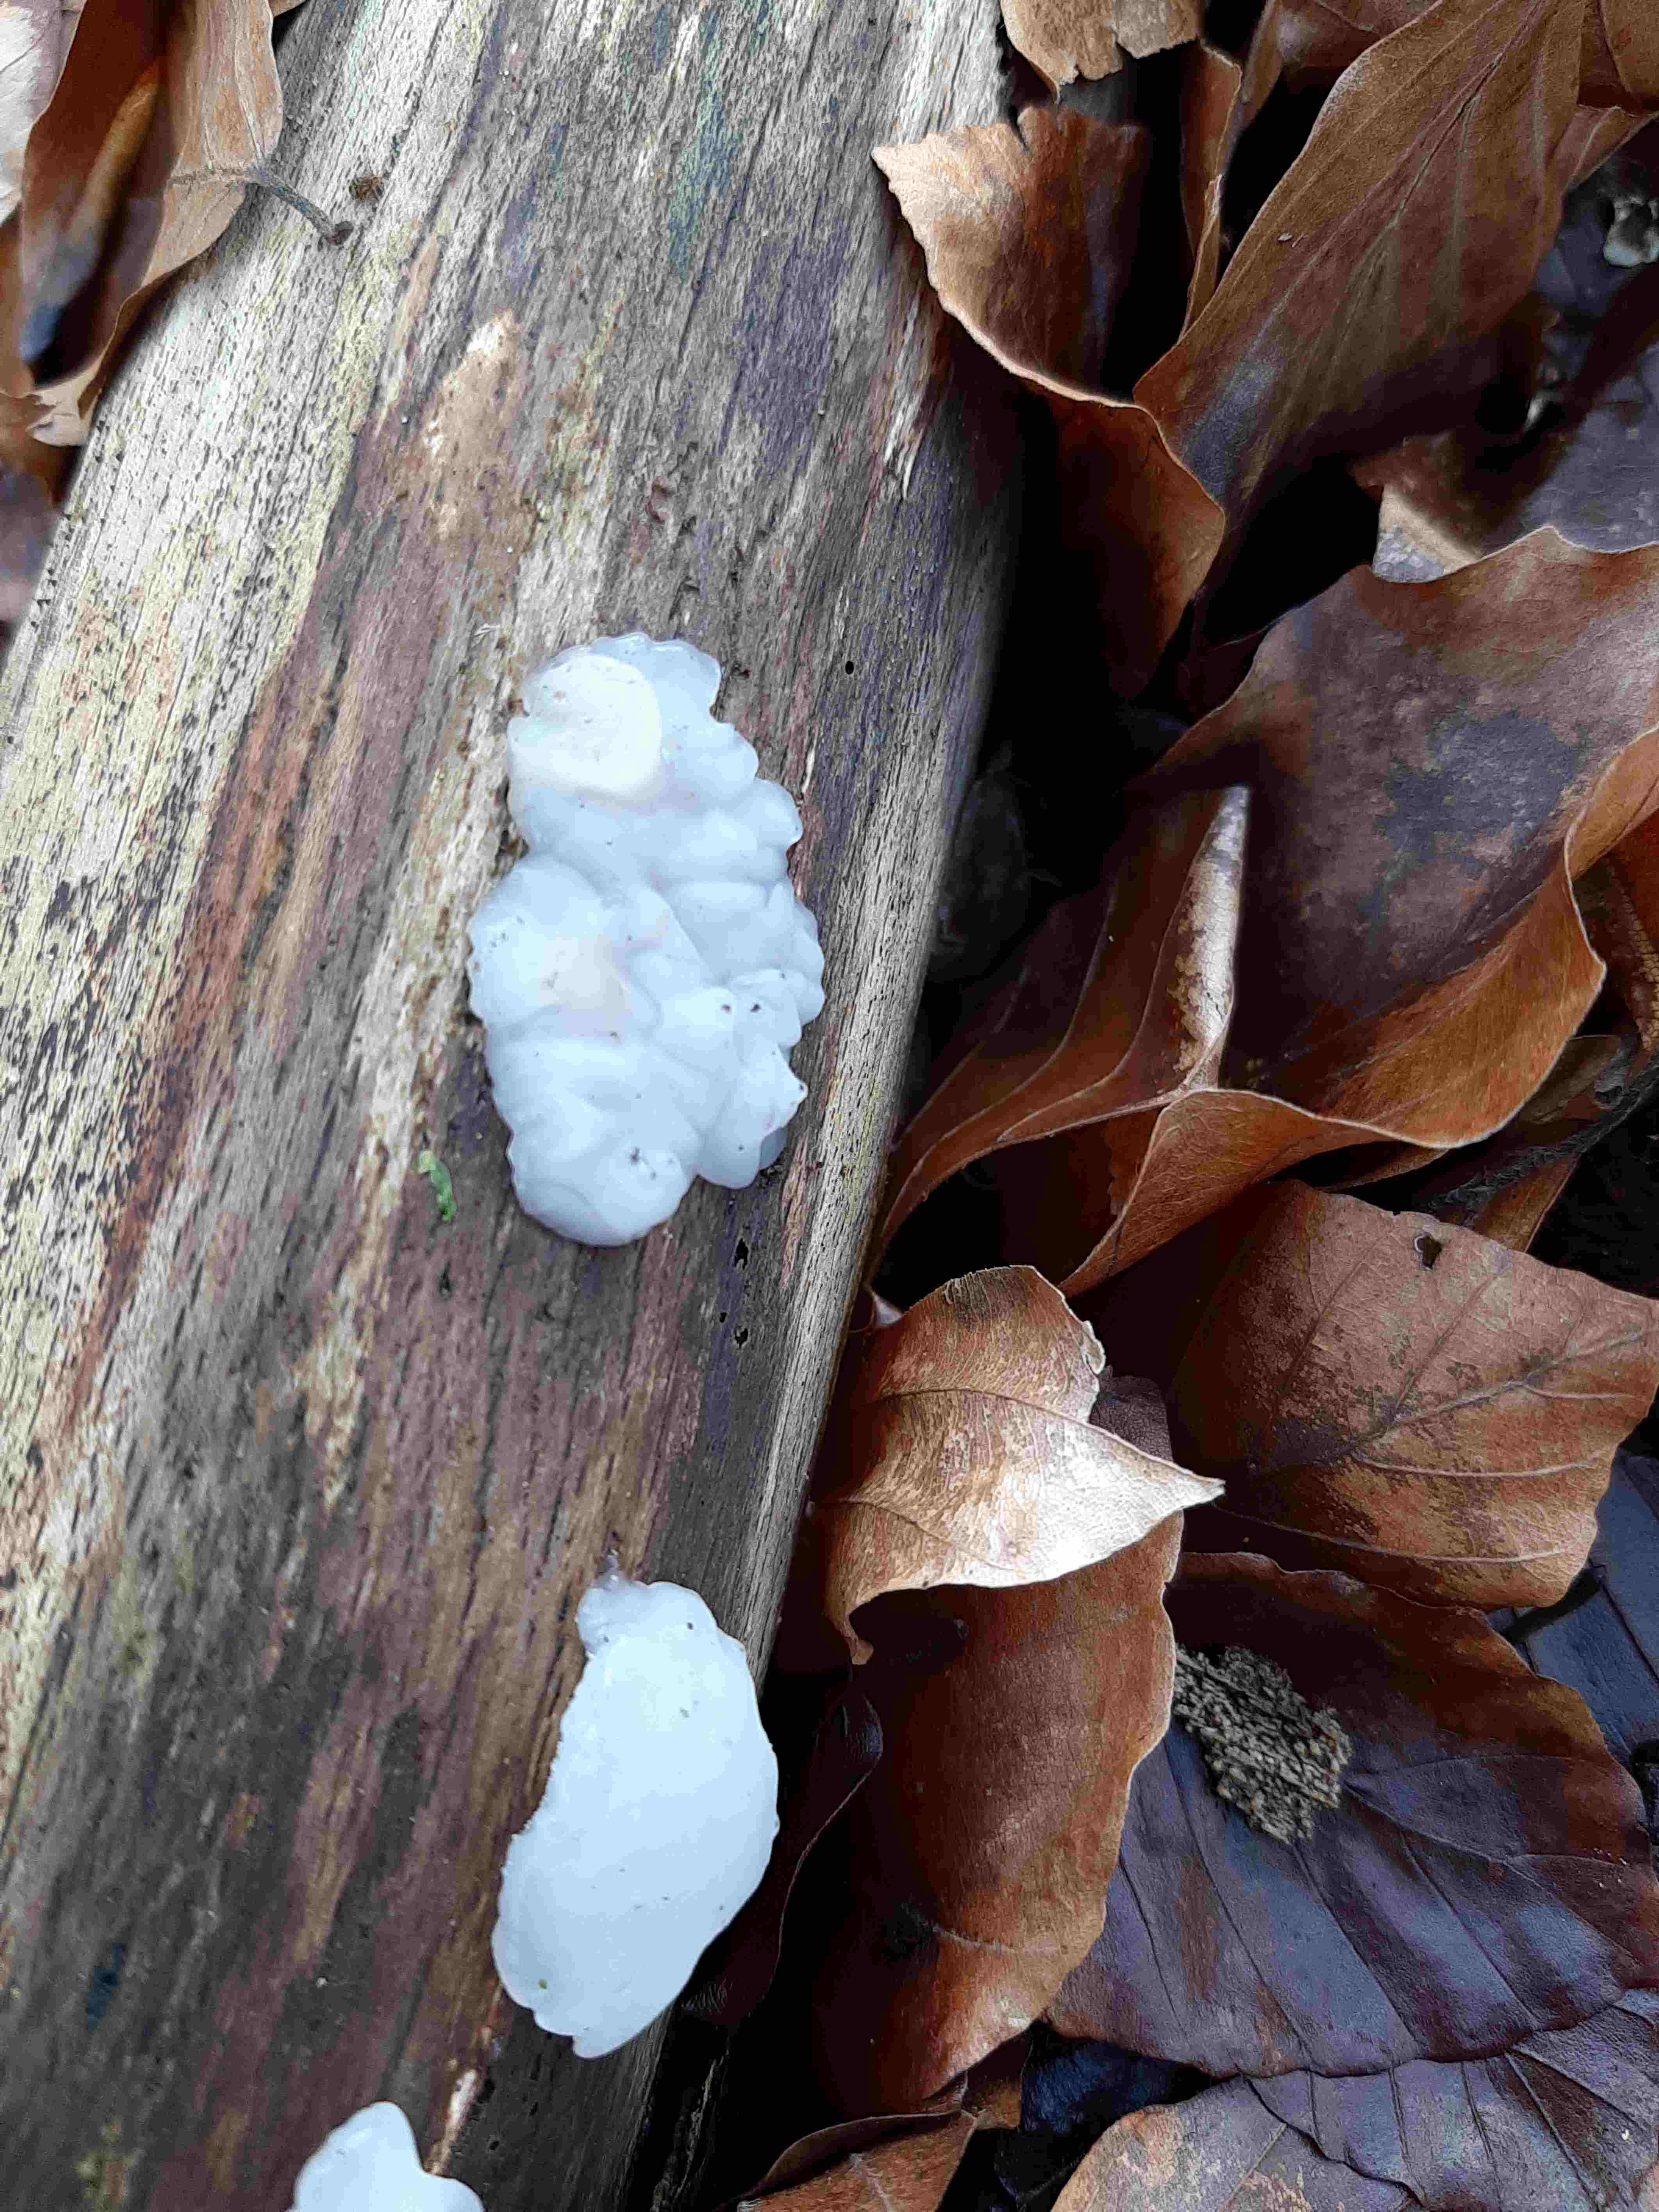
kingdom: Fungi
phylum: Basidiomycota
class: Agaricomycetes
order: Auriculariales
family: Auriculariaceae
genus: Exidia
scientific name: Exidia thuretiana
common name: hvidlig bævretop
